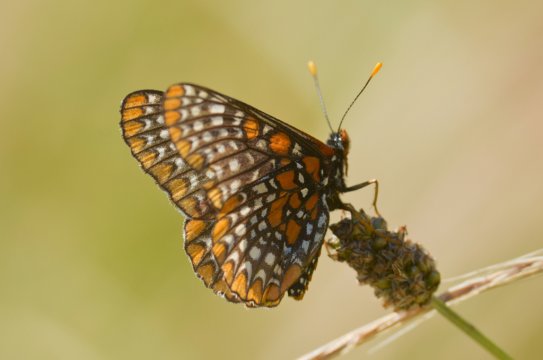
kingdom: Animalia
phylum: Arthropoda
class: Insecta
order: Lepidoptera
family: Nymphalidae
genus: Euphydryas
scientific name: Euphydryas phaeton
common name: Baltimore Checkerspot
